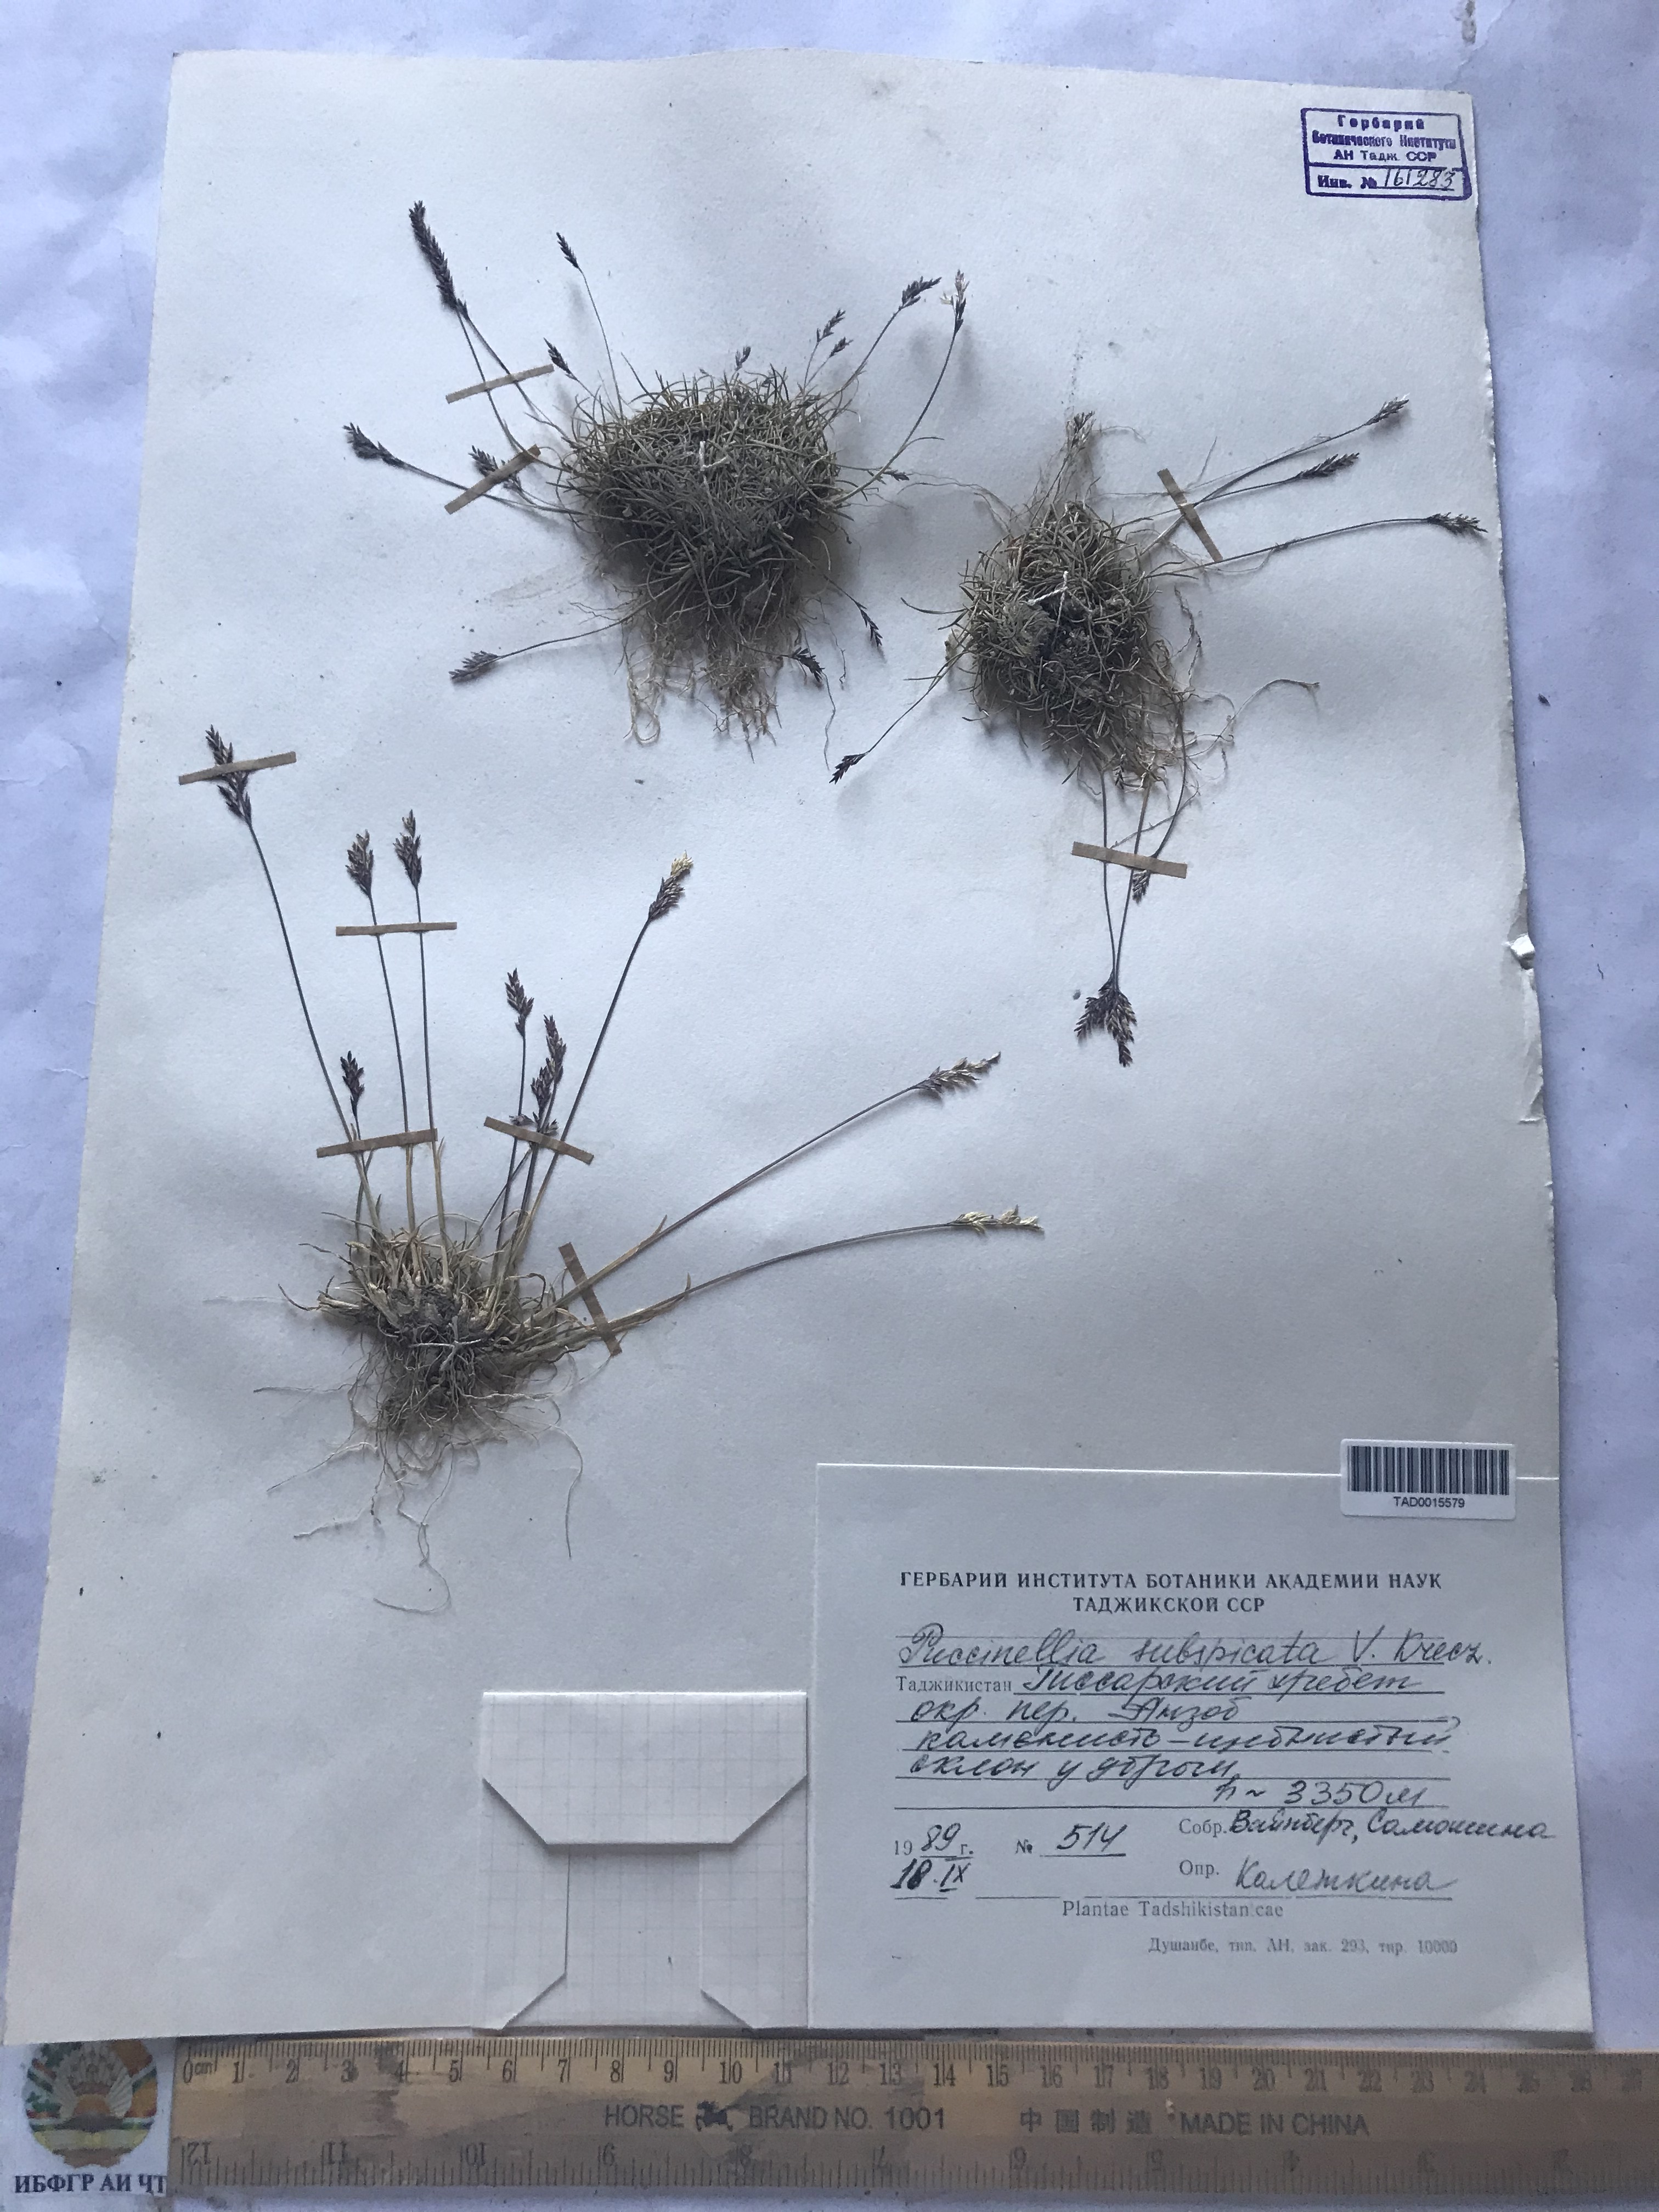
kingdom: Plantae
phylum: Tracheophyta
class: Liliopsida
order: Poales
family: Poaceae
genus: Puccinellia
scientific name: Puccinellia subspicata
